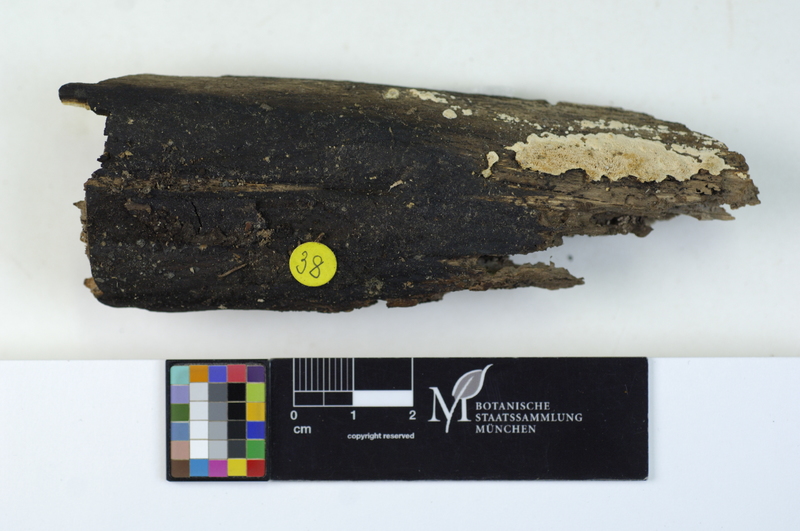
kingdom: Fungi
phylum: Basidiomycota
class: Agaricomycetes
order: Polyporales
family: Steccherinaceae
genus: Junghuhnia
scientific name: Junghuhnia nitida
